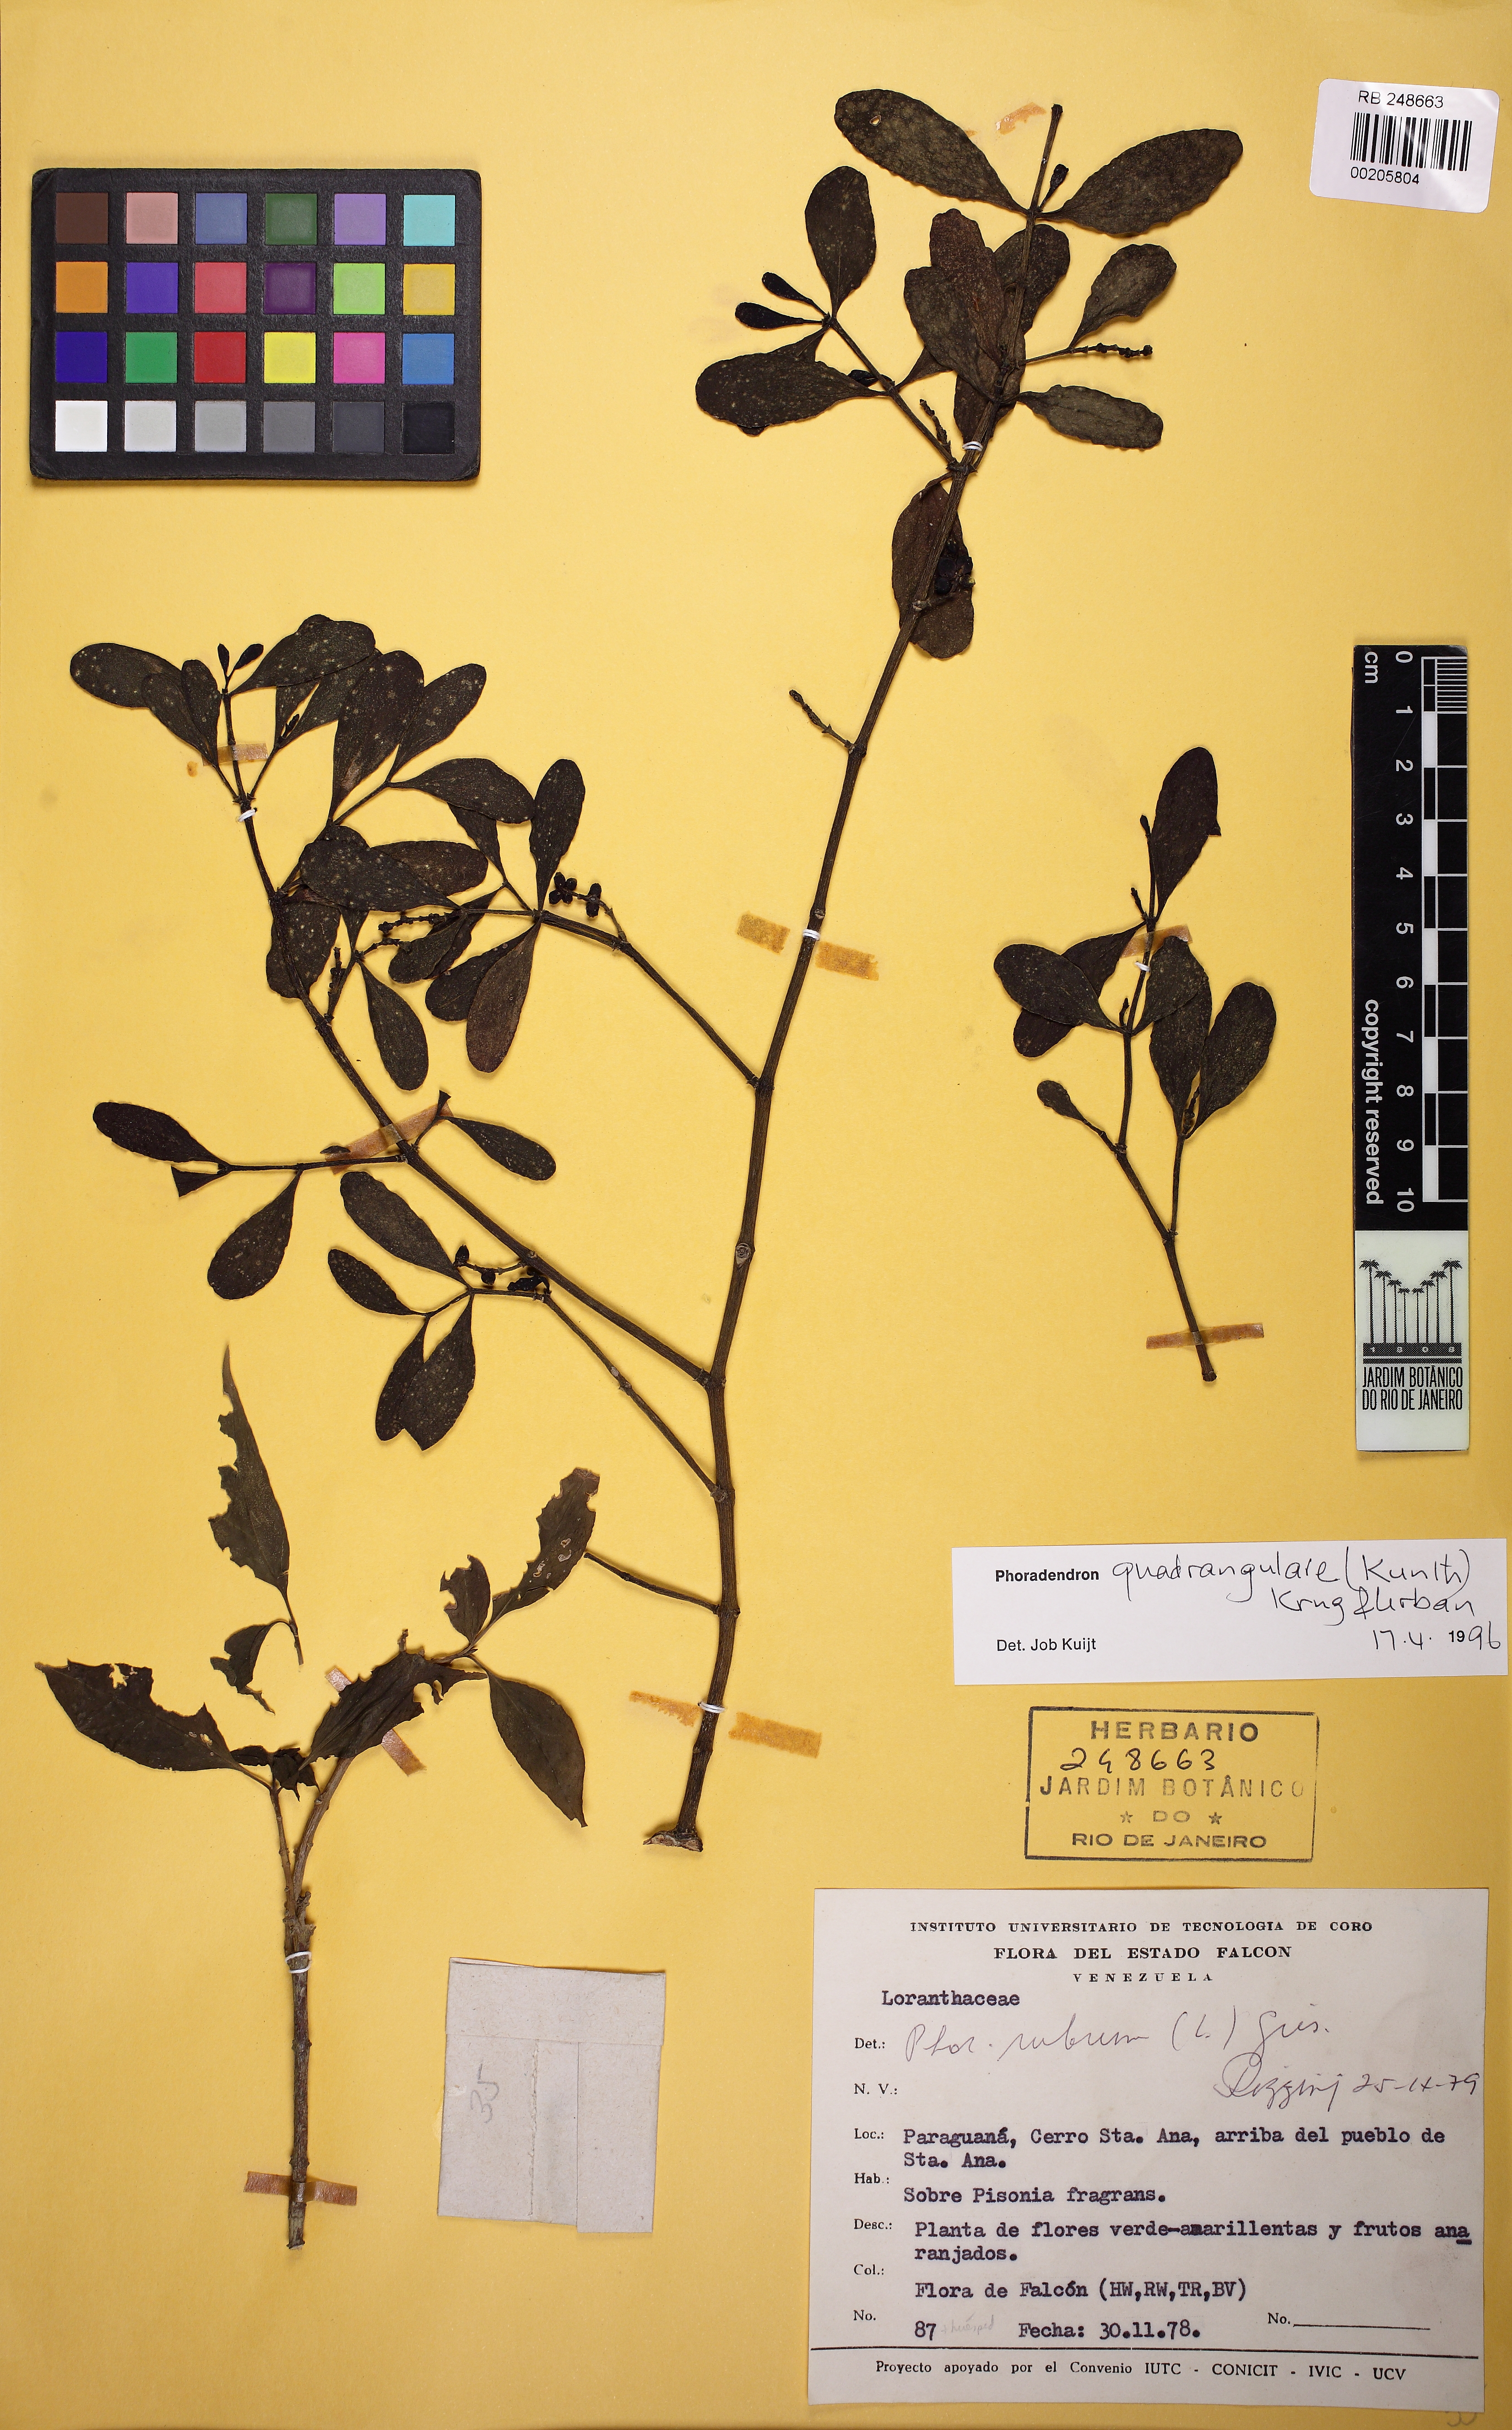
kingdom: Plantae
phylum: Tracheophyta
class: Magnoliopsida
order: Santalales
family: Viscaceae
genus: Phoradendron
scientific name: Phoradendron quadrangulare
